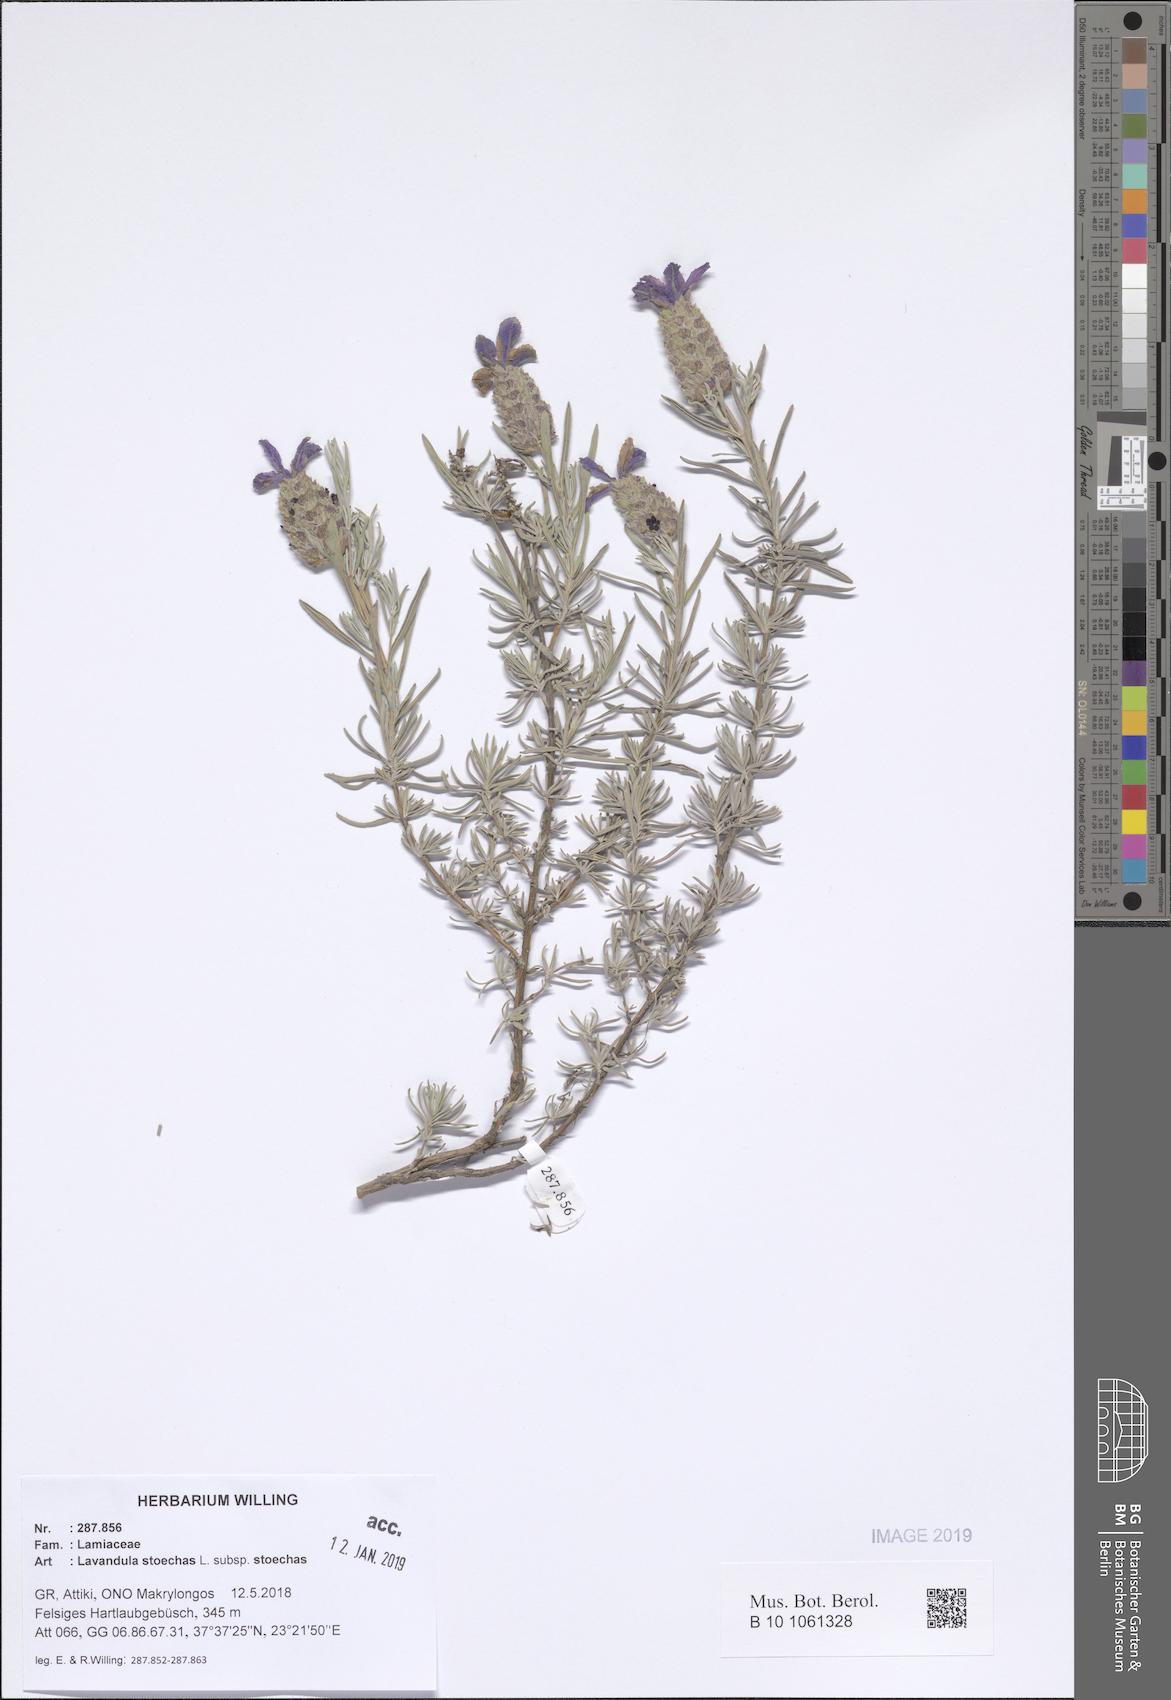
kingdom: Plantae
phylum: Tracheophyta
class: Magnoliopsida
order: Lamiales
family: Lamiaceae
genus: Lavandula
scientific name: Lavandula stoechas
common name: French lavender
